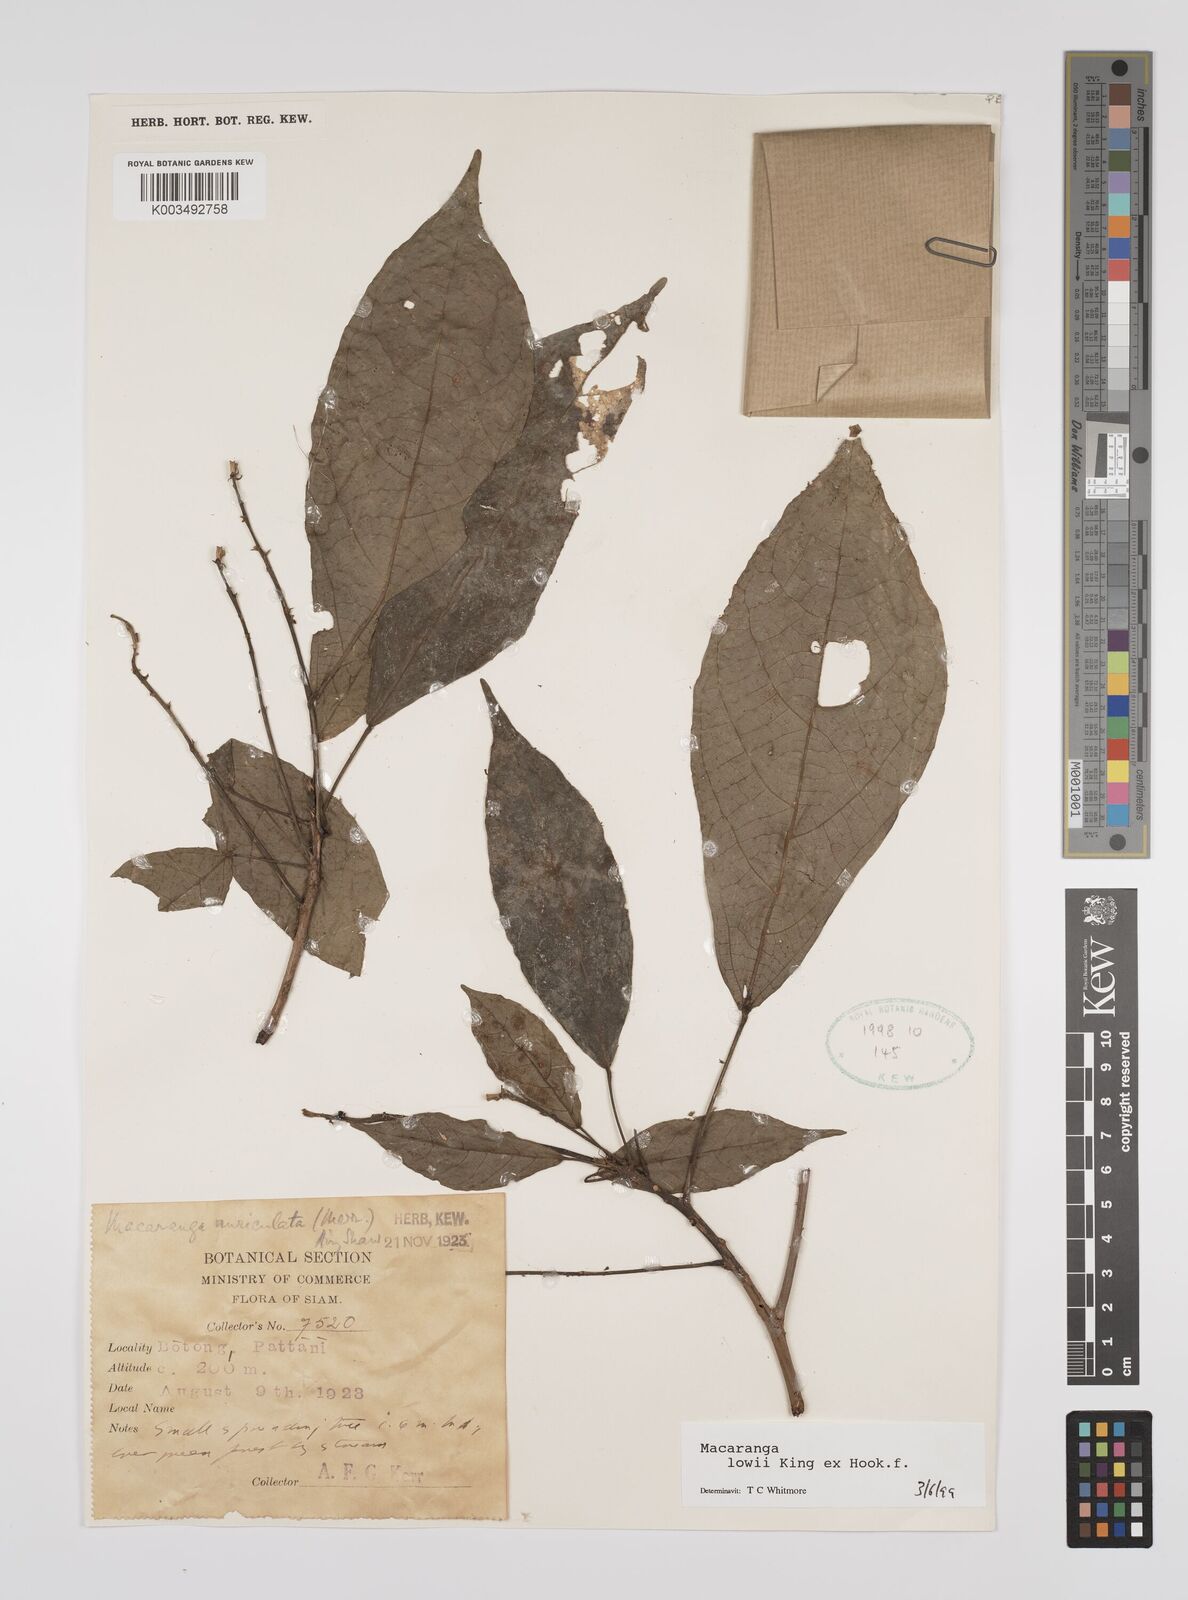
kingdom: Plantae
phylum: Tracheophyta
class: Magnoliopsida
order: Malpighiales
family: Euphorbiaceae
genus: Macaranga
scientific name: Macaranga lowii
